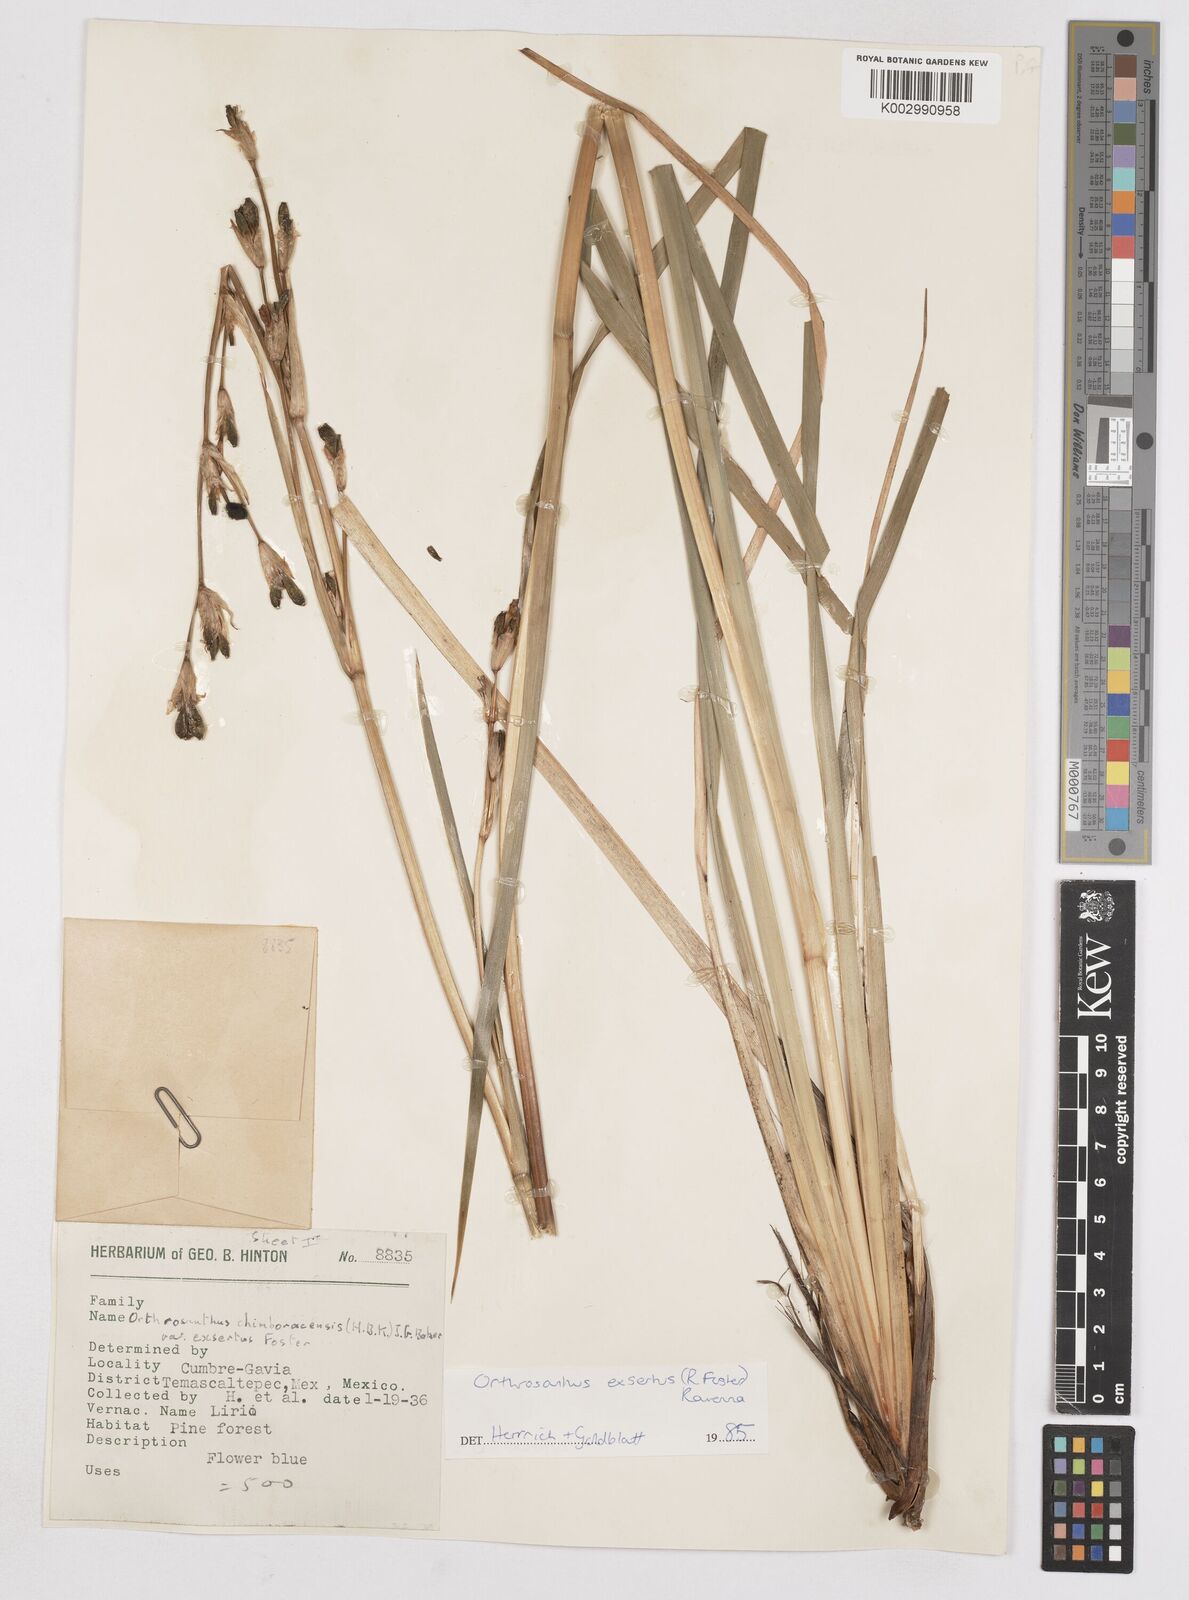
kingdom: Plantae
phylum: Tracheophyta
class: Liliopsida
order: Asparagales
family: Iridaceae
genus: Orthrosanthus
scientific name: Orthrosanthus exsertus
